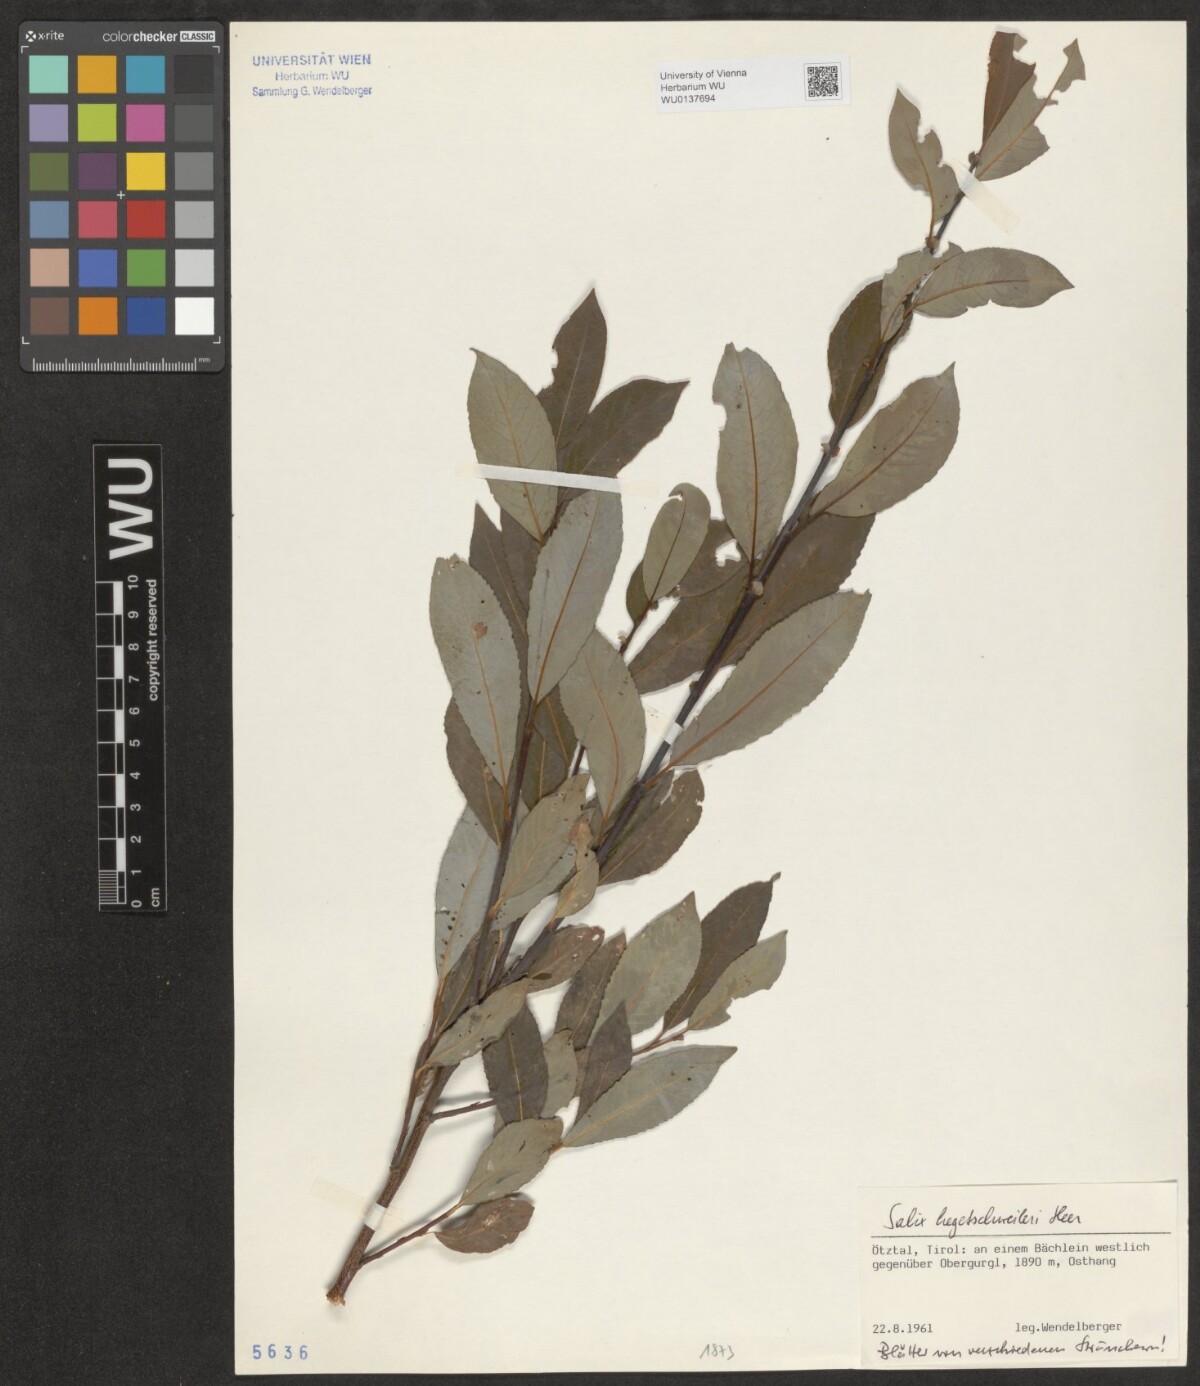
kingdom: Plantae
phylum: Tracheophyta
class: Magnoliopsida
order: Malpighiales
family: Salicaceae
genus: Salix
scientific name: Salix hegetschweileri
